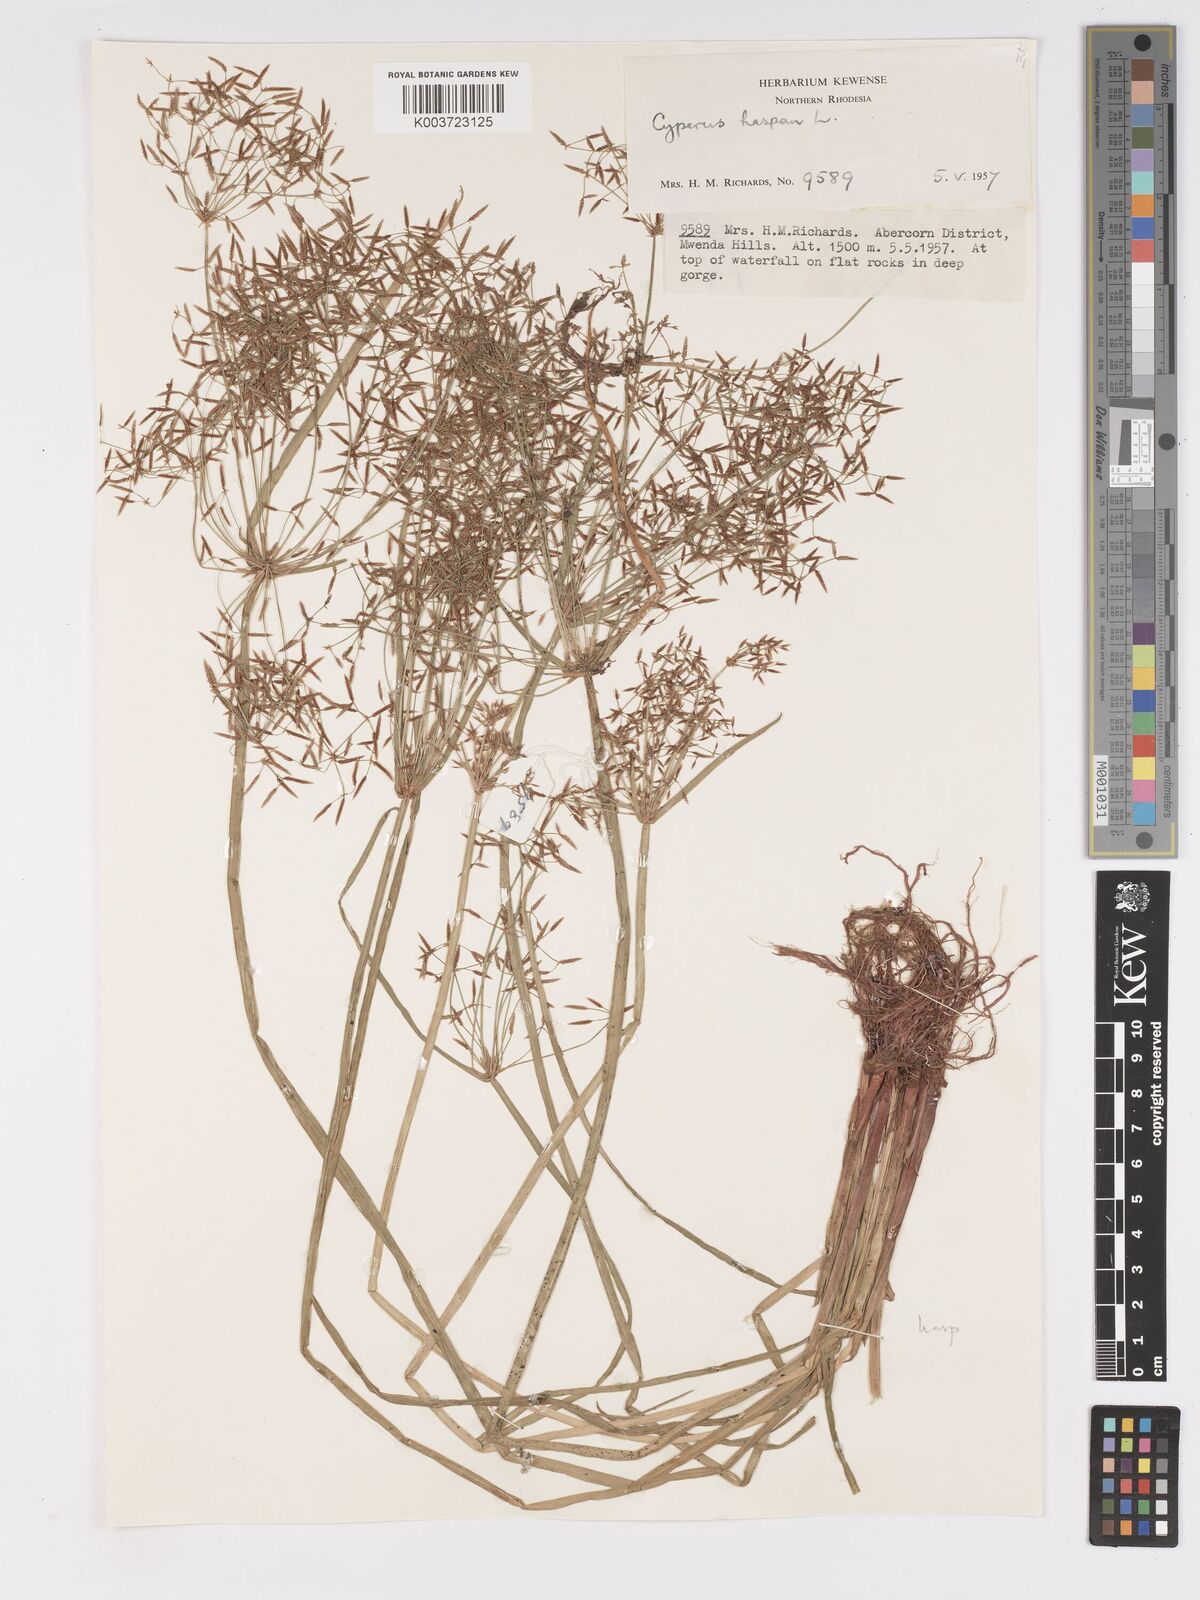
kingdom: Plantae
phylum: Tracheophyta
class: Liliopsida
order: Poales
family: Cyperaceae
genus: Cyperus
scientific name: Cyperus haspan
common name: Haspan flatsedge
